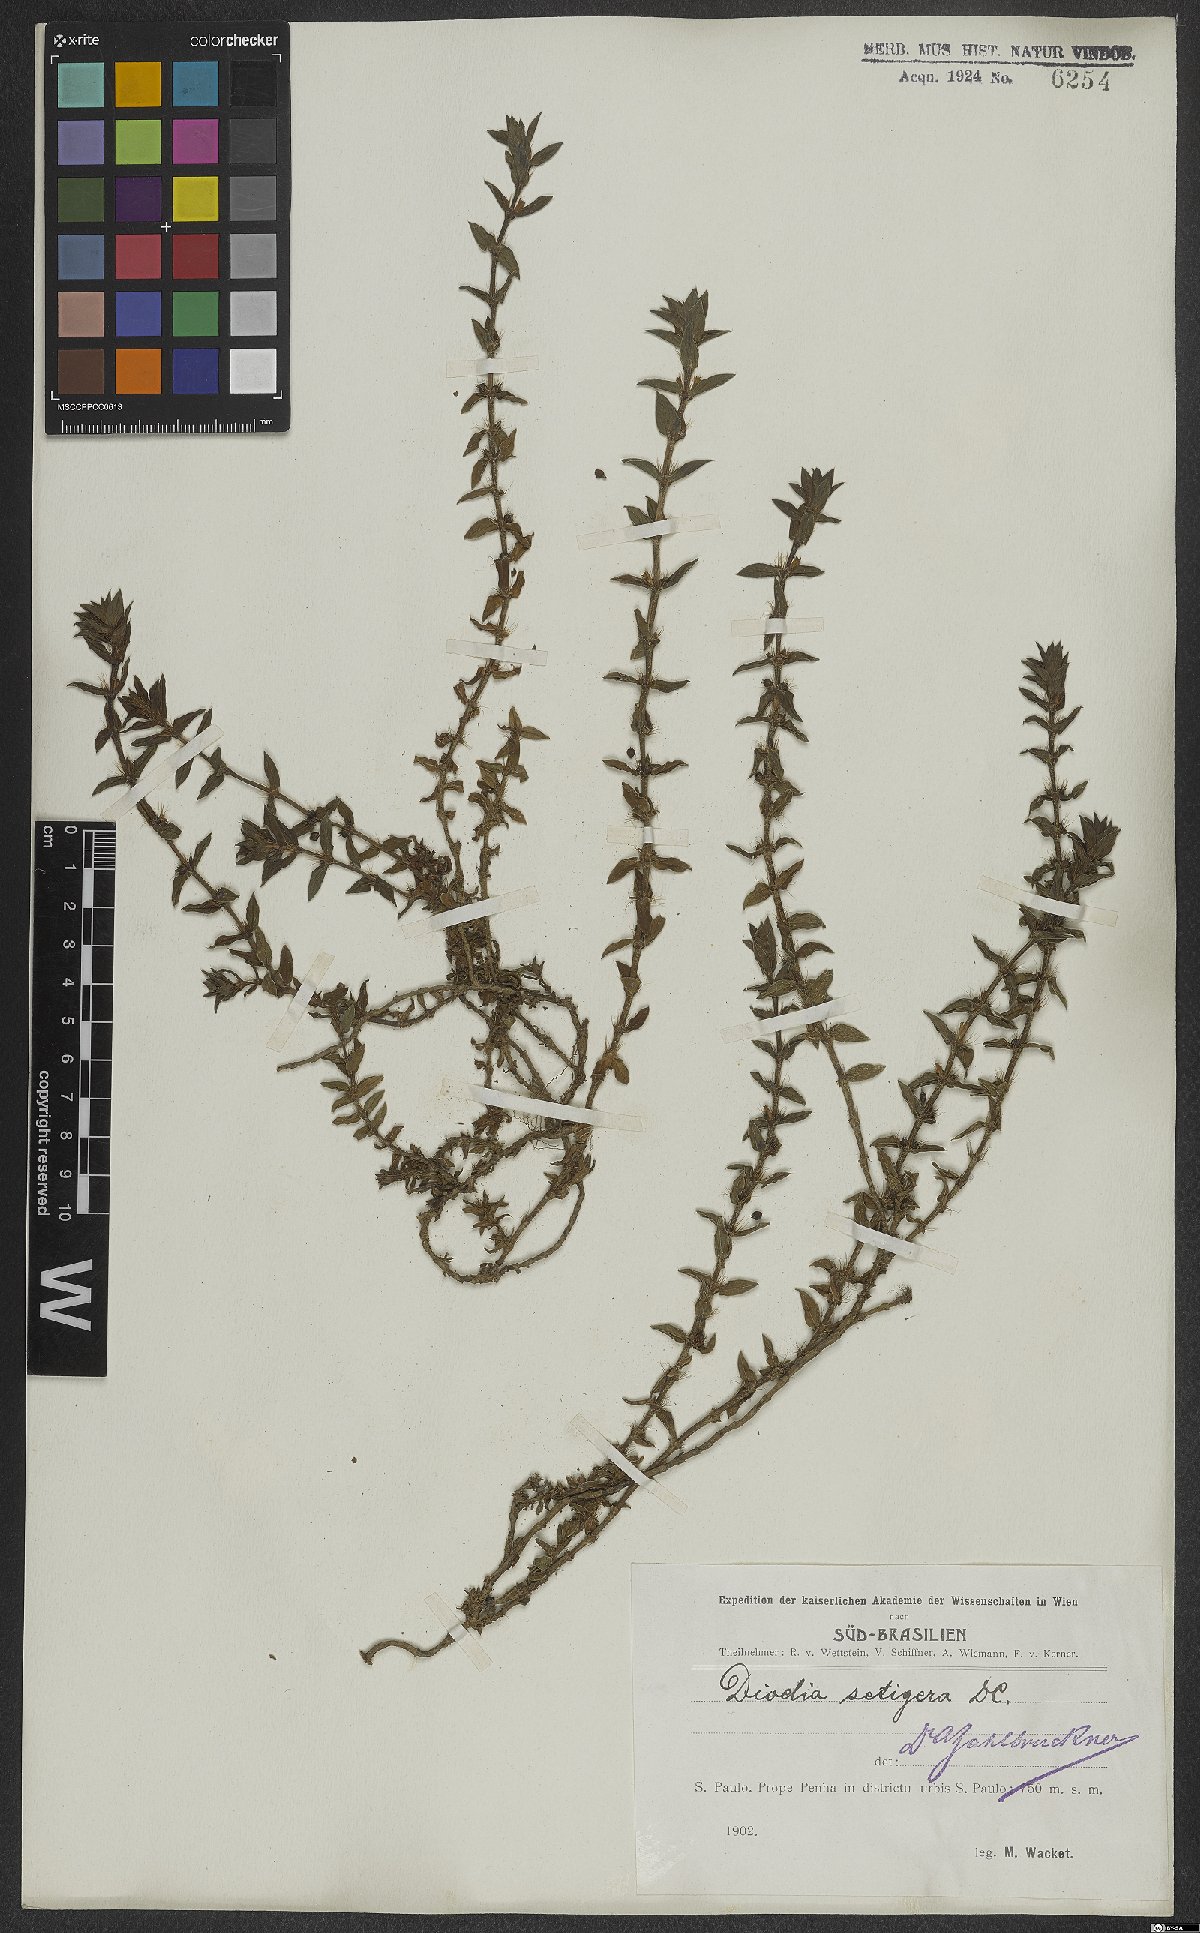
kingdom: Plantae
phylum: Tracheophyta
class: Magnoliopsida
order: Gentianales
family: Rubiaceae
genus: Hexasepalum
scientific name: Hexasepalum apiculatum
